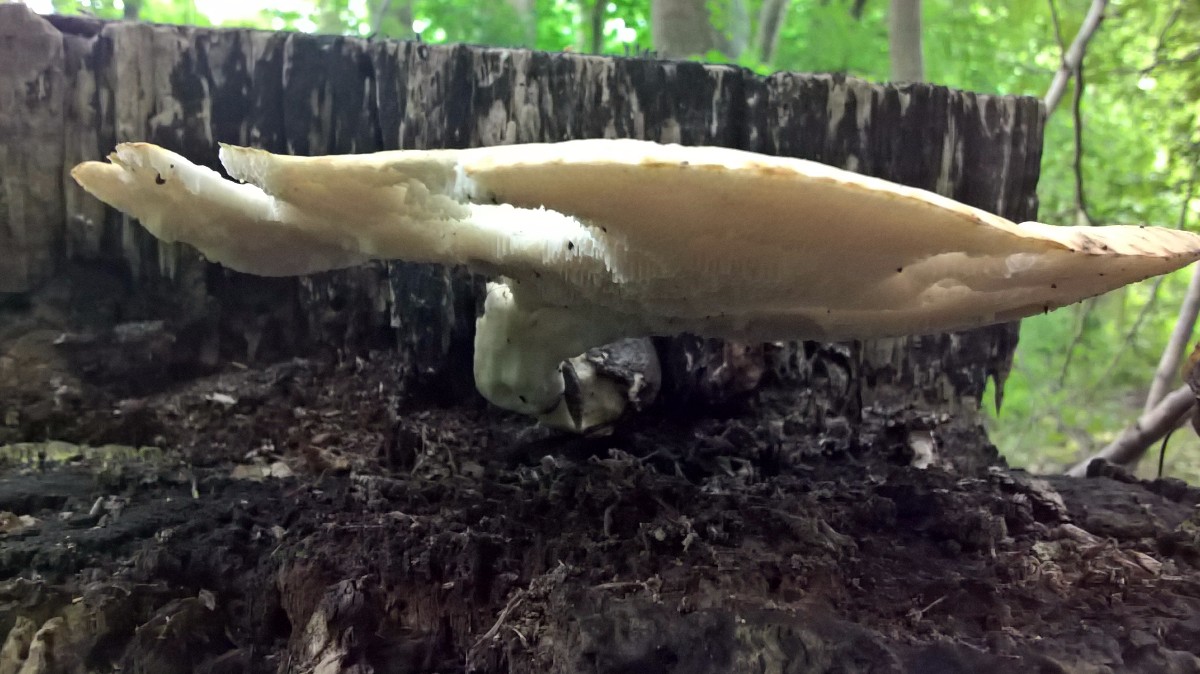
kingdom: Fungi
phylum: Basidiomycota
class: Agaricomycetes
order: Polyporales
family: Polyporaceae
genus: Cerioporus
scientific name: Cerioporus squamosus
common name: skællet stilkporesvamp
